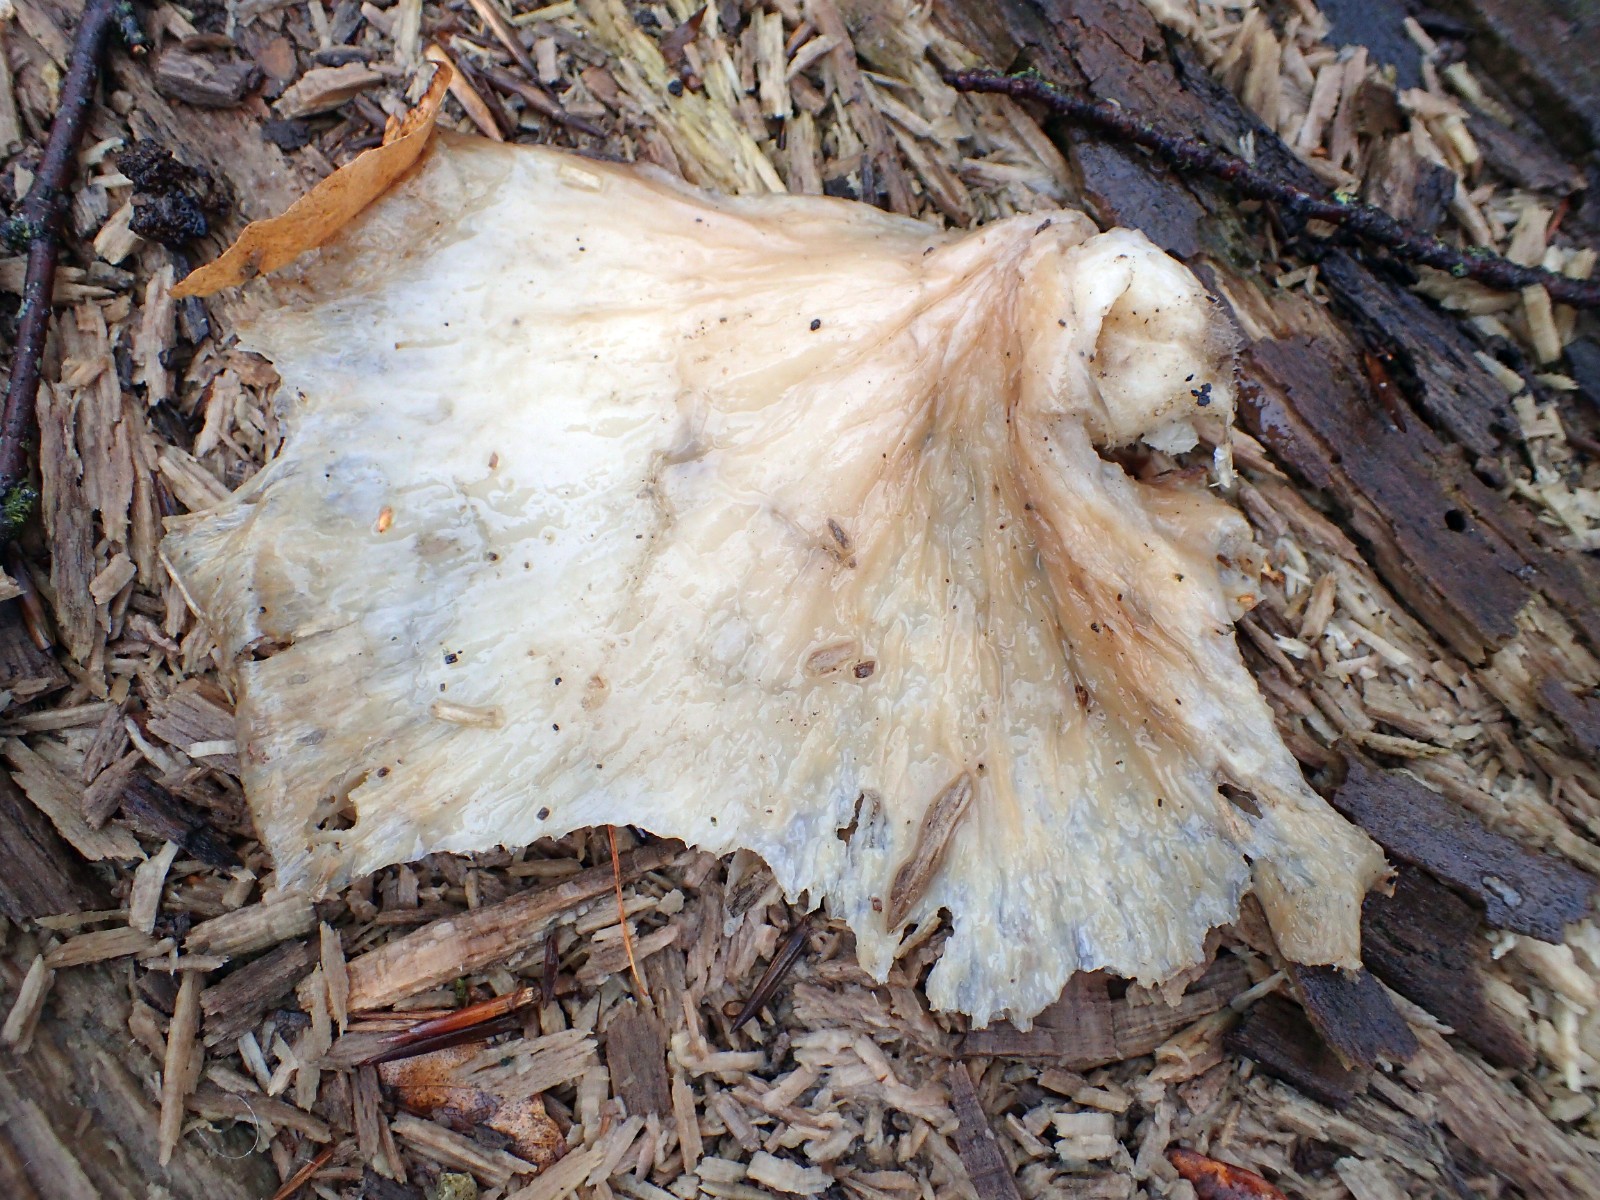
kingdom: Fungi
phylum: Basidiomycota
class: Agaricomycetes
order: Agaricales
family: Pleurotaceae
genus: Pleurotus
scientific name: Pleurotus ostreatus
